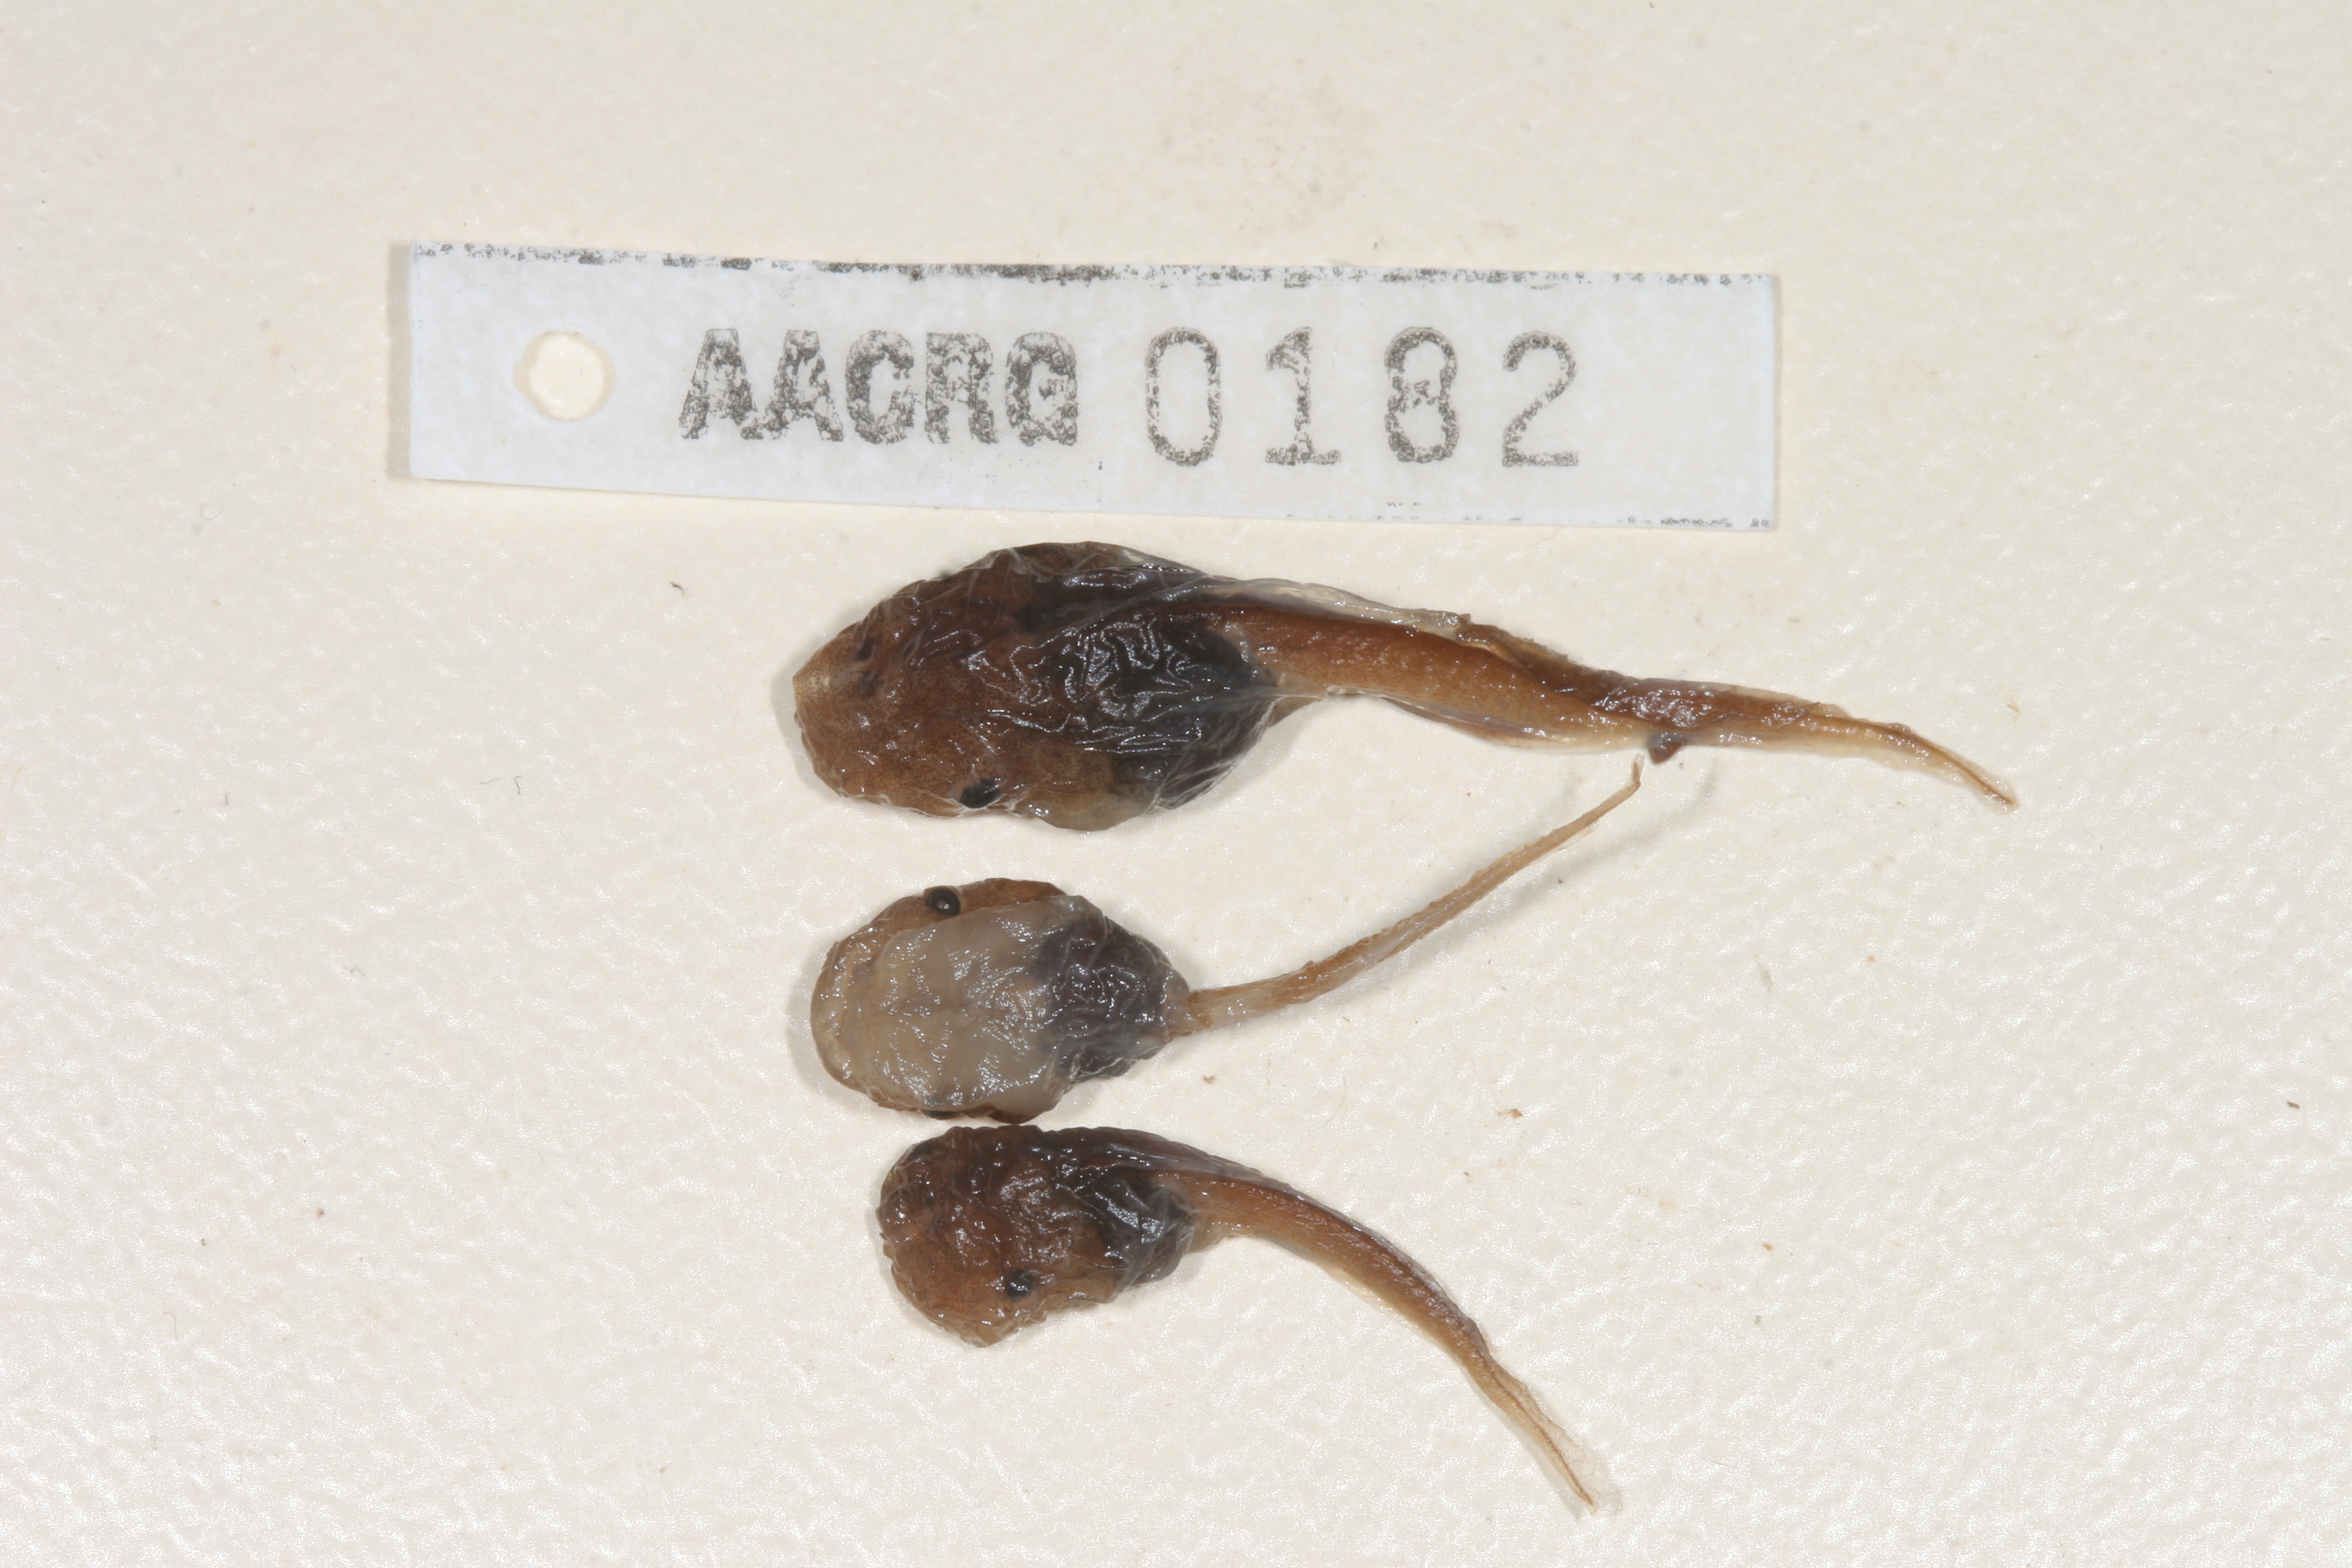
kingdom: Animalia
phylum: Chordata
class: Amphibia
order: Anura
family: Microhylidae
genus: Phrynomantis
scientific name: Phrynomantis annectens
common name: Marbled rubber frog
